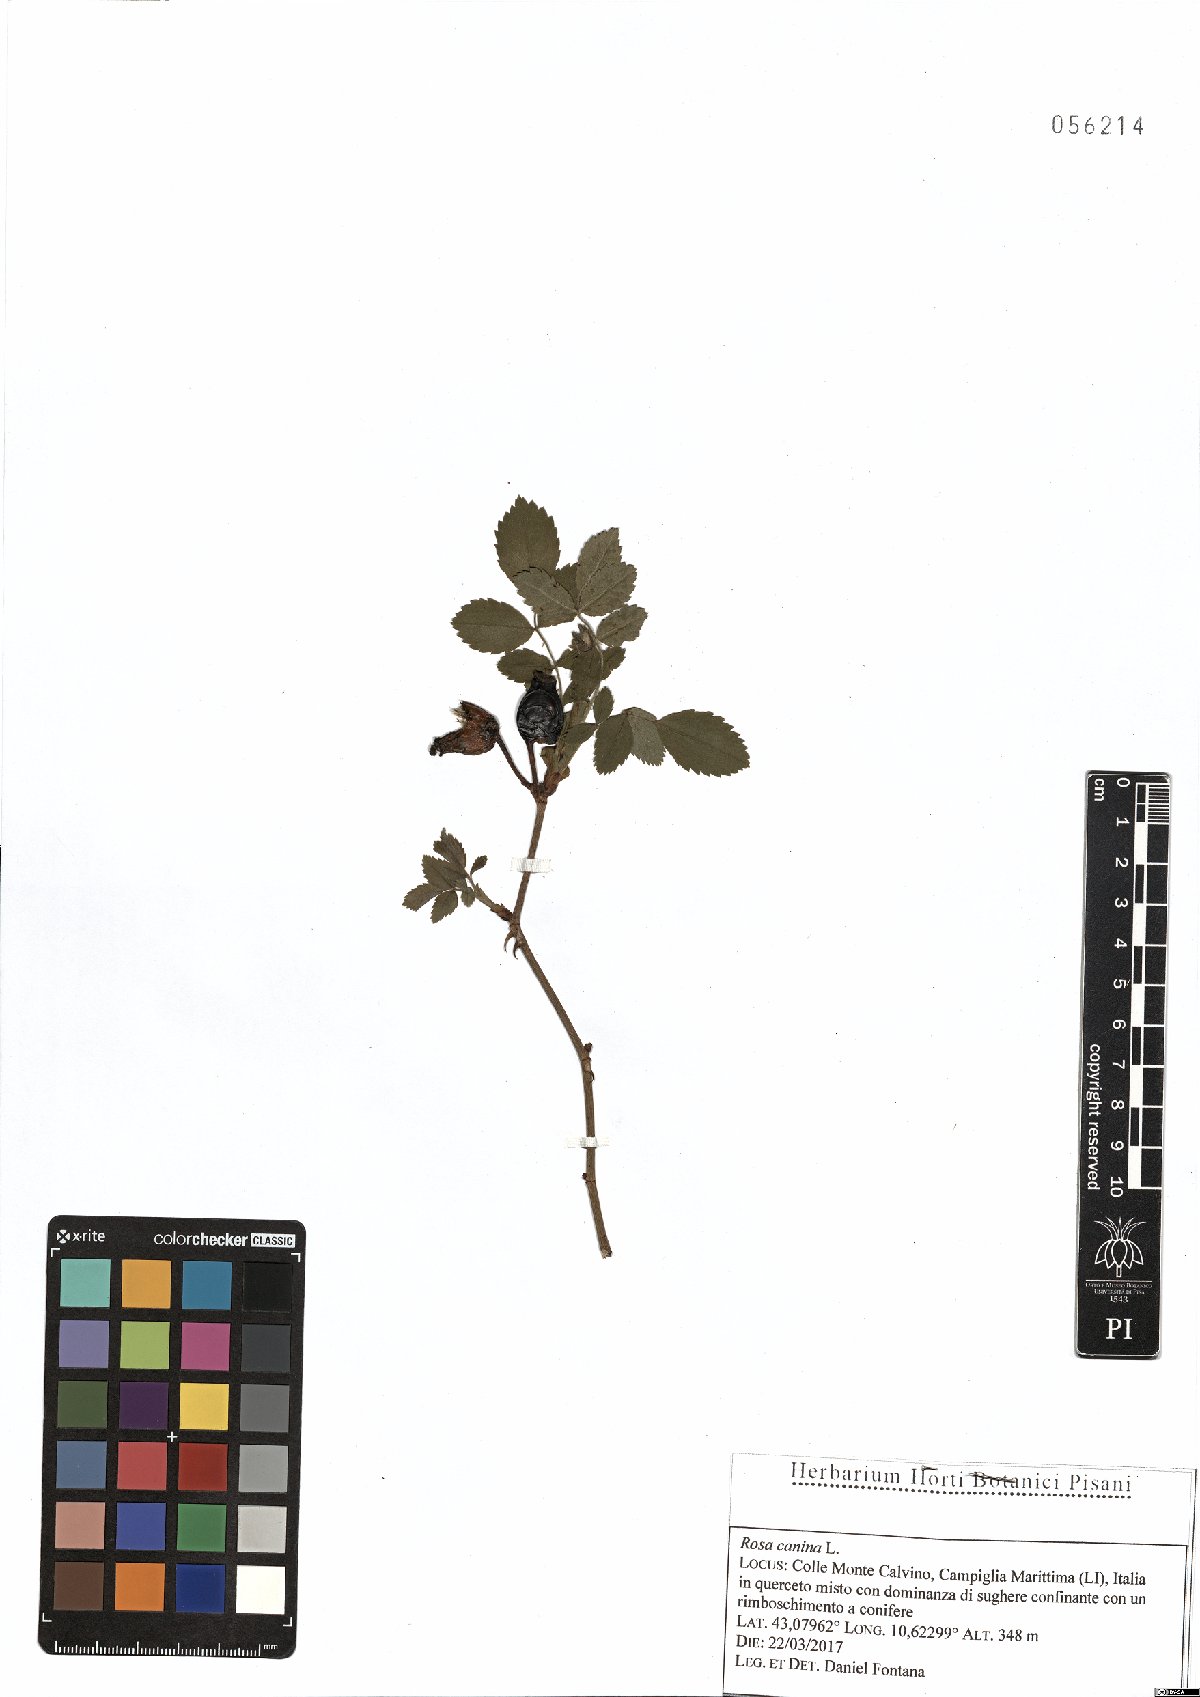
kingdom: Plantae
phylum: Tracheophyta
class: Magnoliopsida
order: Rosales
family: Rosaceae
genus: Rosa
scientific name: Rosa canina
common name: Dog rose
